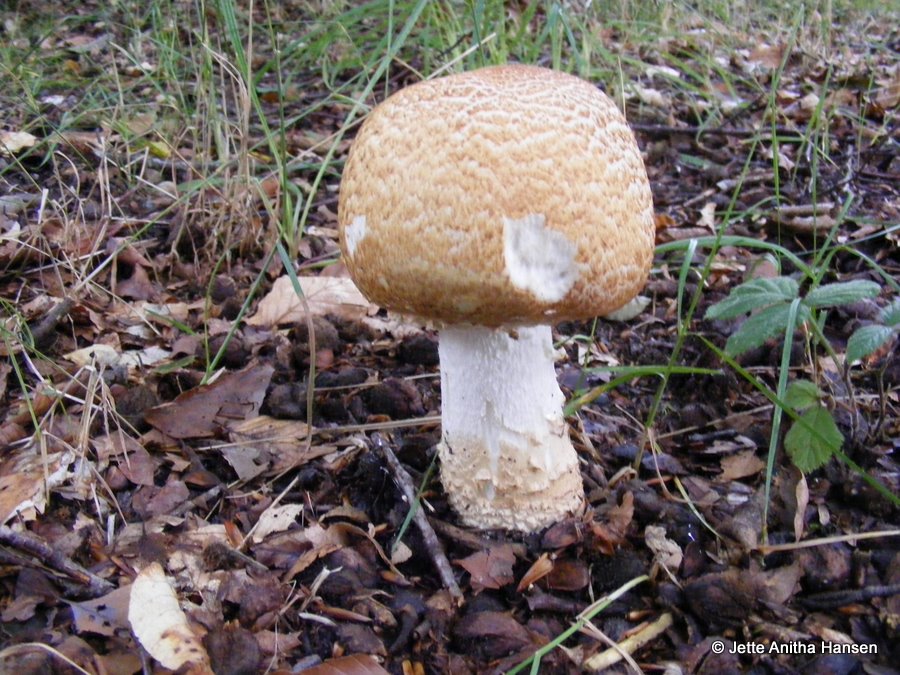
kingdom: Fungi
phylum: Basidiomycota
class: Agaricomycetes
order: Agaricales
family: Agaricaceae
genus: Agaricus
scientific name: Agaricus augustus
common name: prægtig champignon
